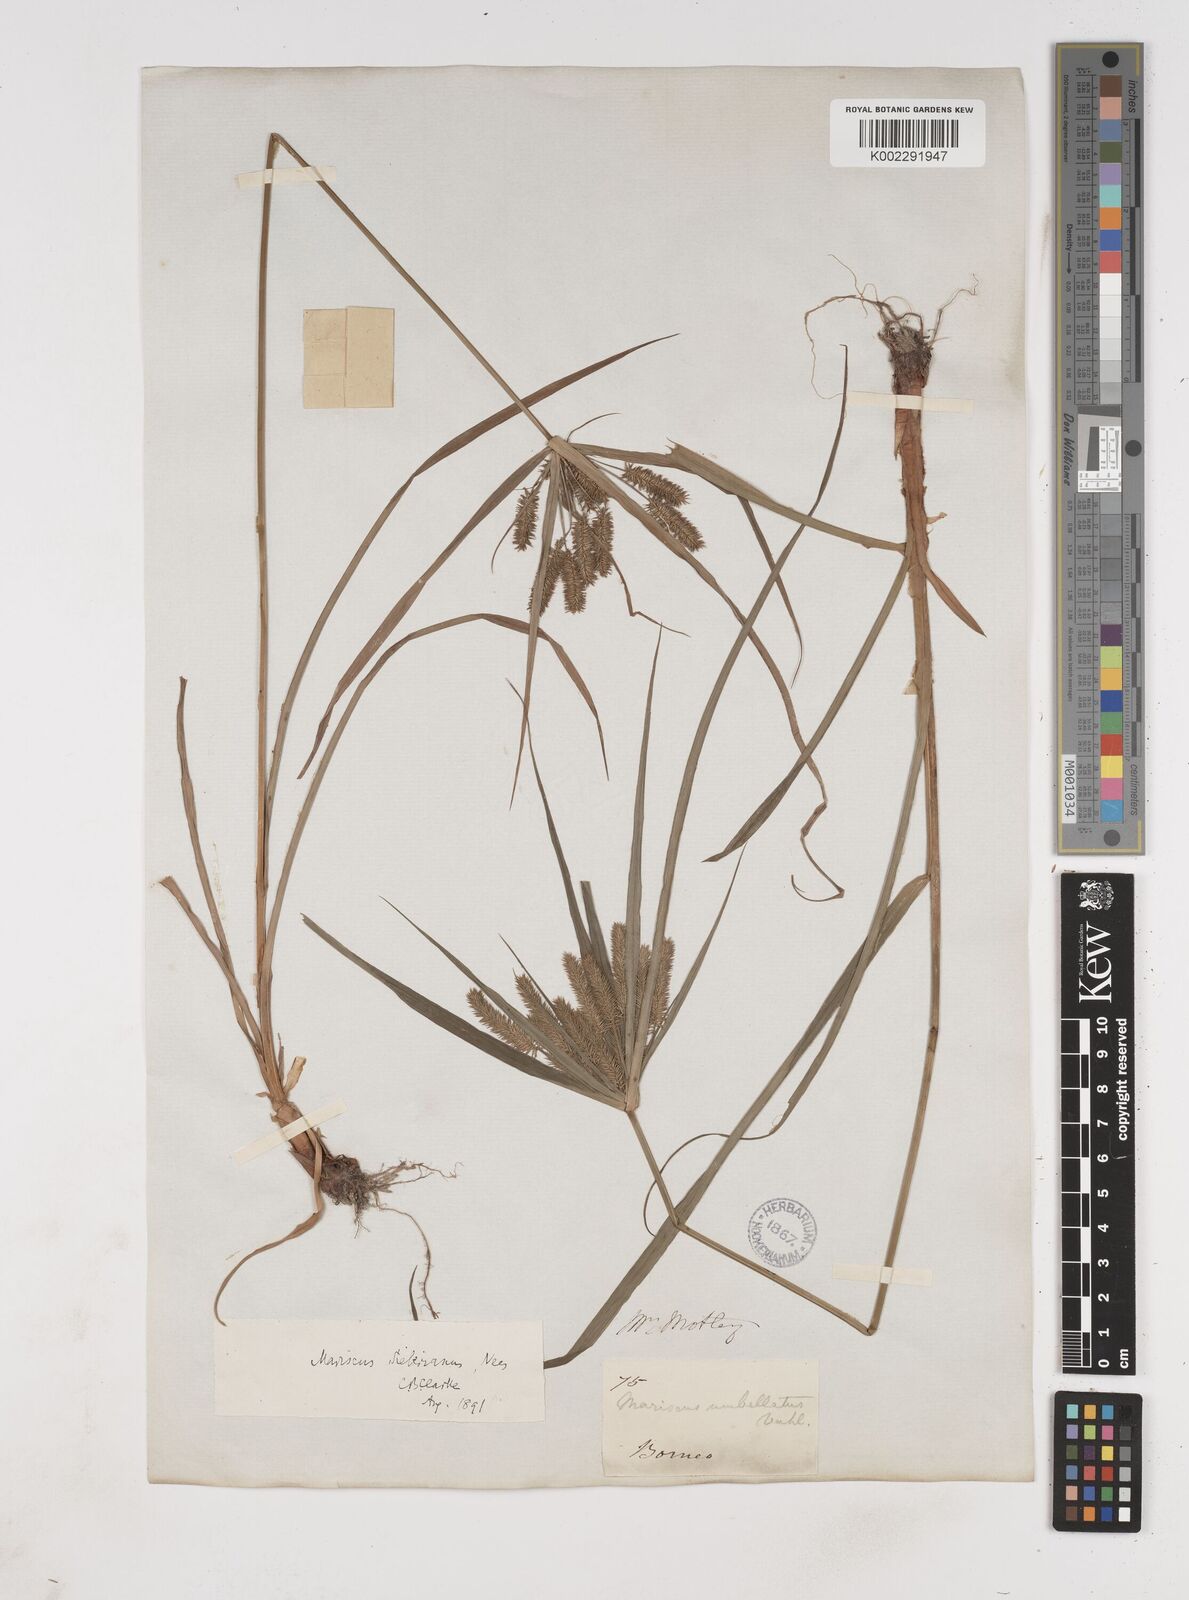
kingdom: Plantae
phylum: Tracheophyta
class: Liliopsida
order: Poales
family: Cyperaceae
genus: Cyperus
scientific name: Cyperus cyperoides
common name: Pacific island flat sedge
